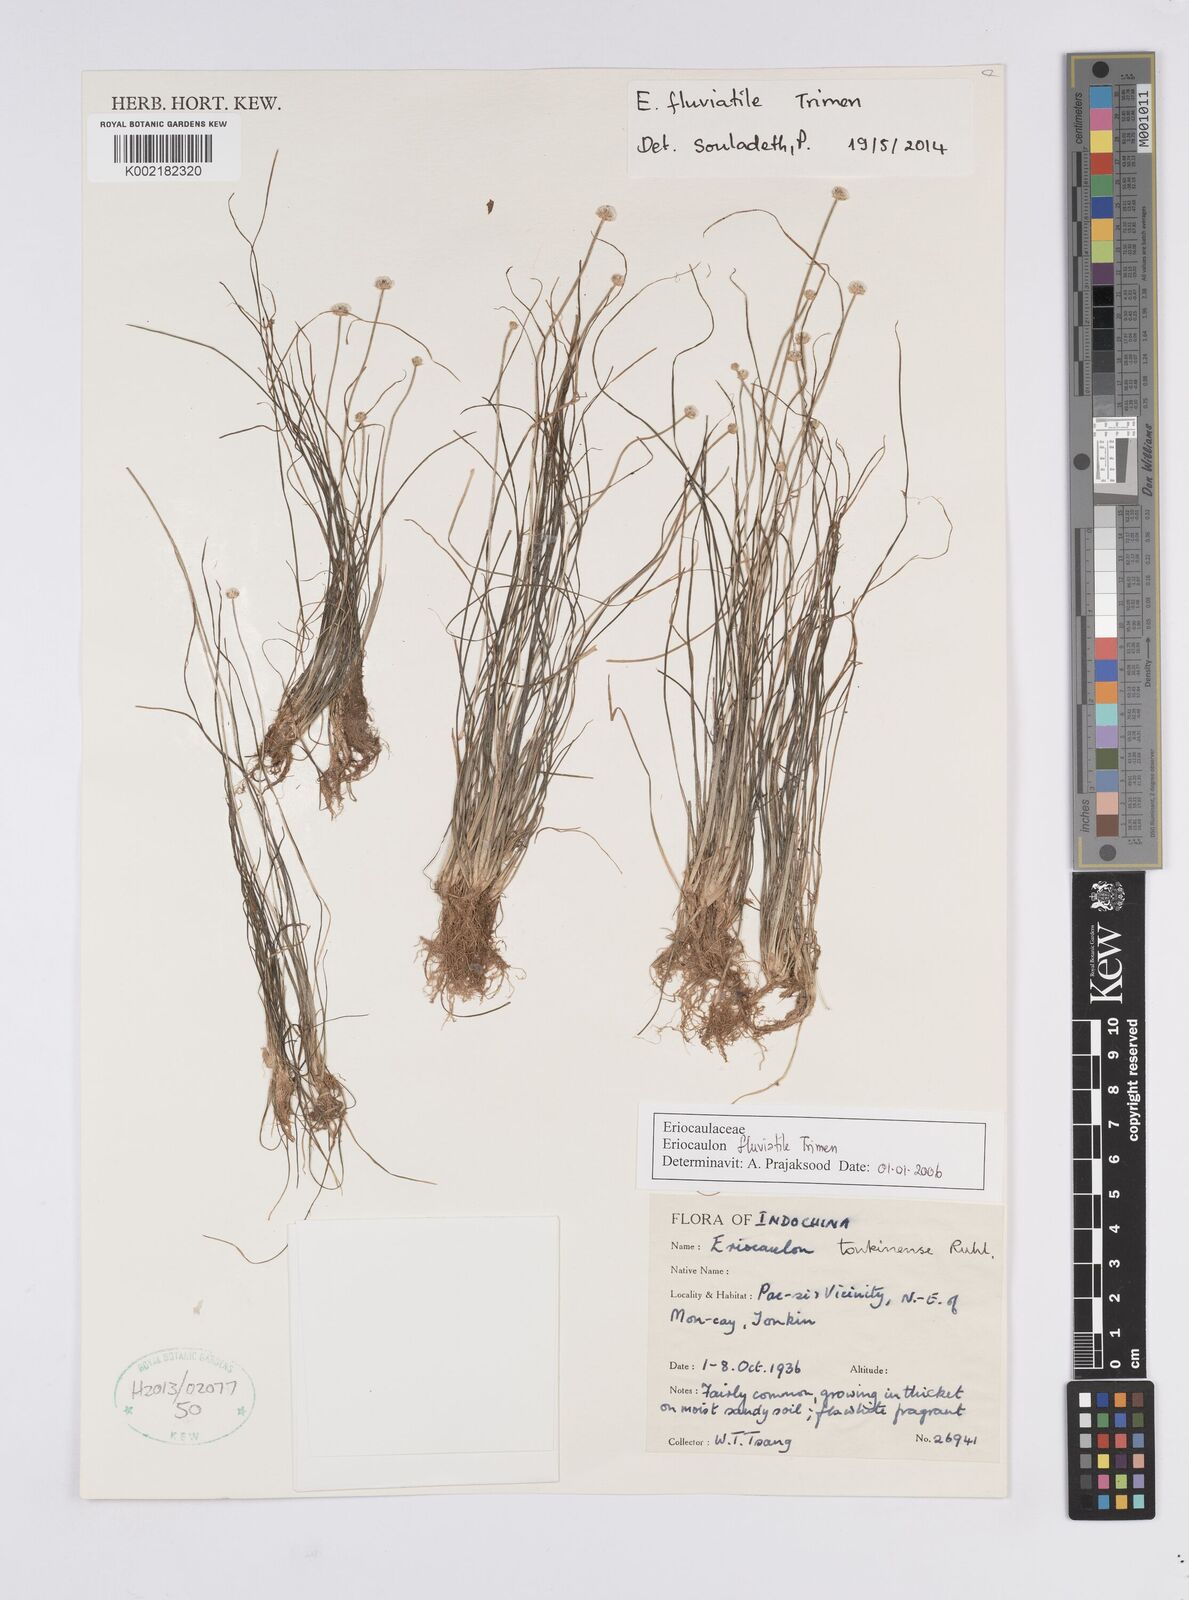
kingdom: Plantae
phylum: Tracheophyta
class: Liliopsida
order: Poales
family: Eriocaulaceae
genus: Eriocaulon
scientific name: Eriocaulon fluviatile
